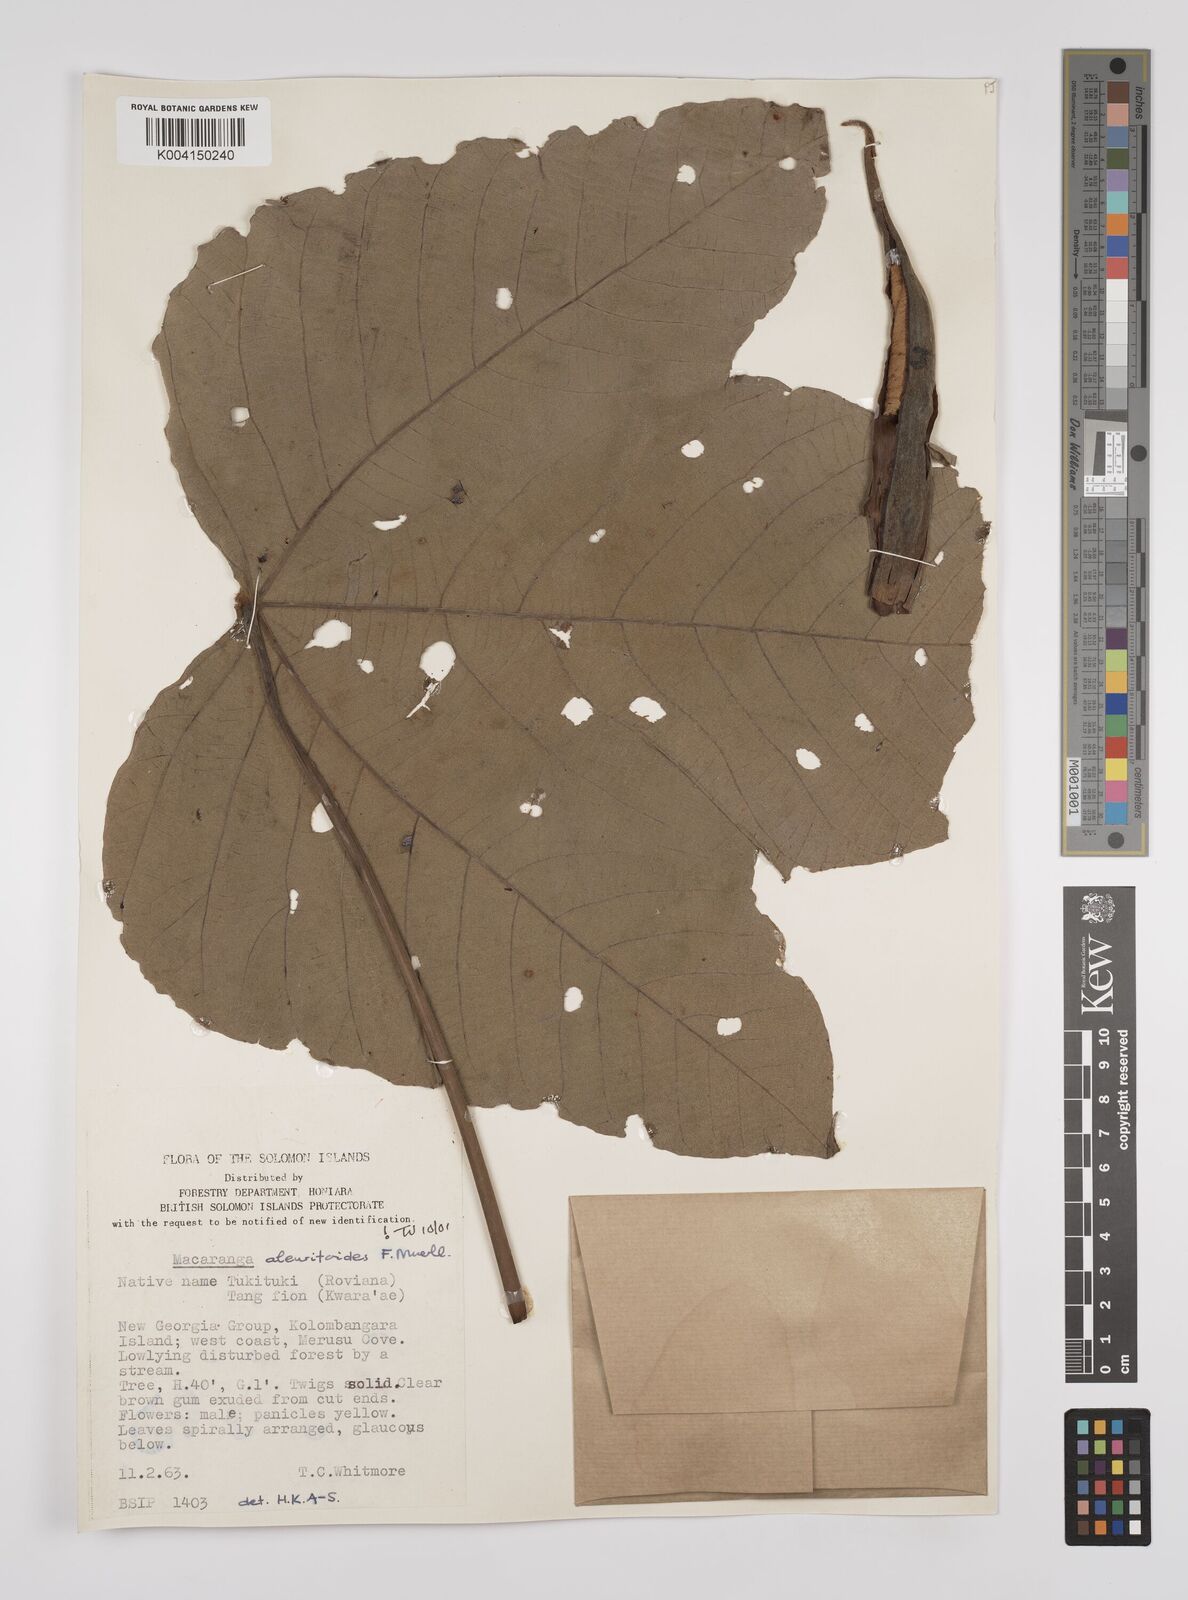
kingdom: Plantae
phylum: Tracheophyta
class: Magnoliopsida
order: Malpighiales
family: Euphorbiaceae
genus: Macaranga
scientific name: Macaranga aleuritoides
